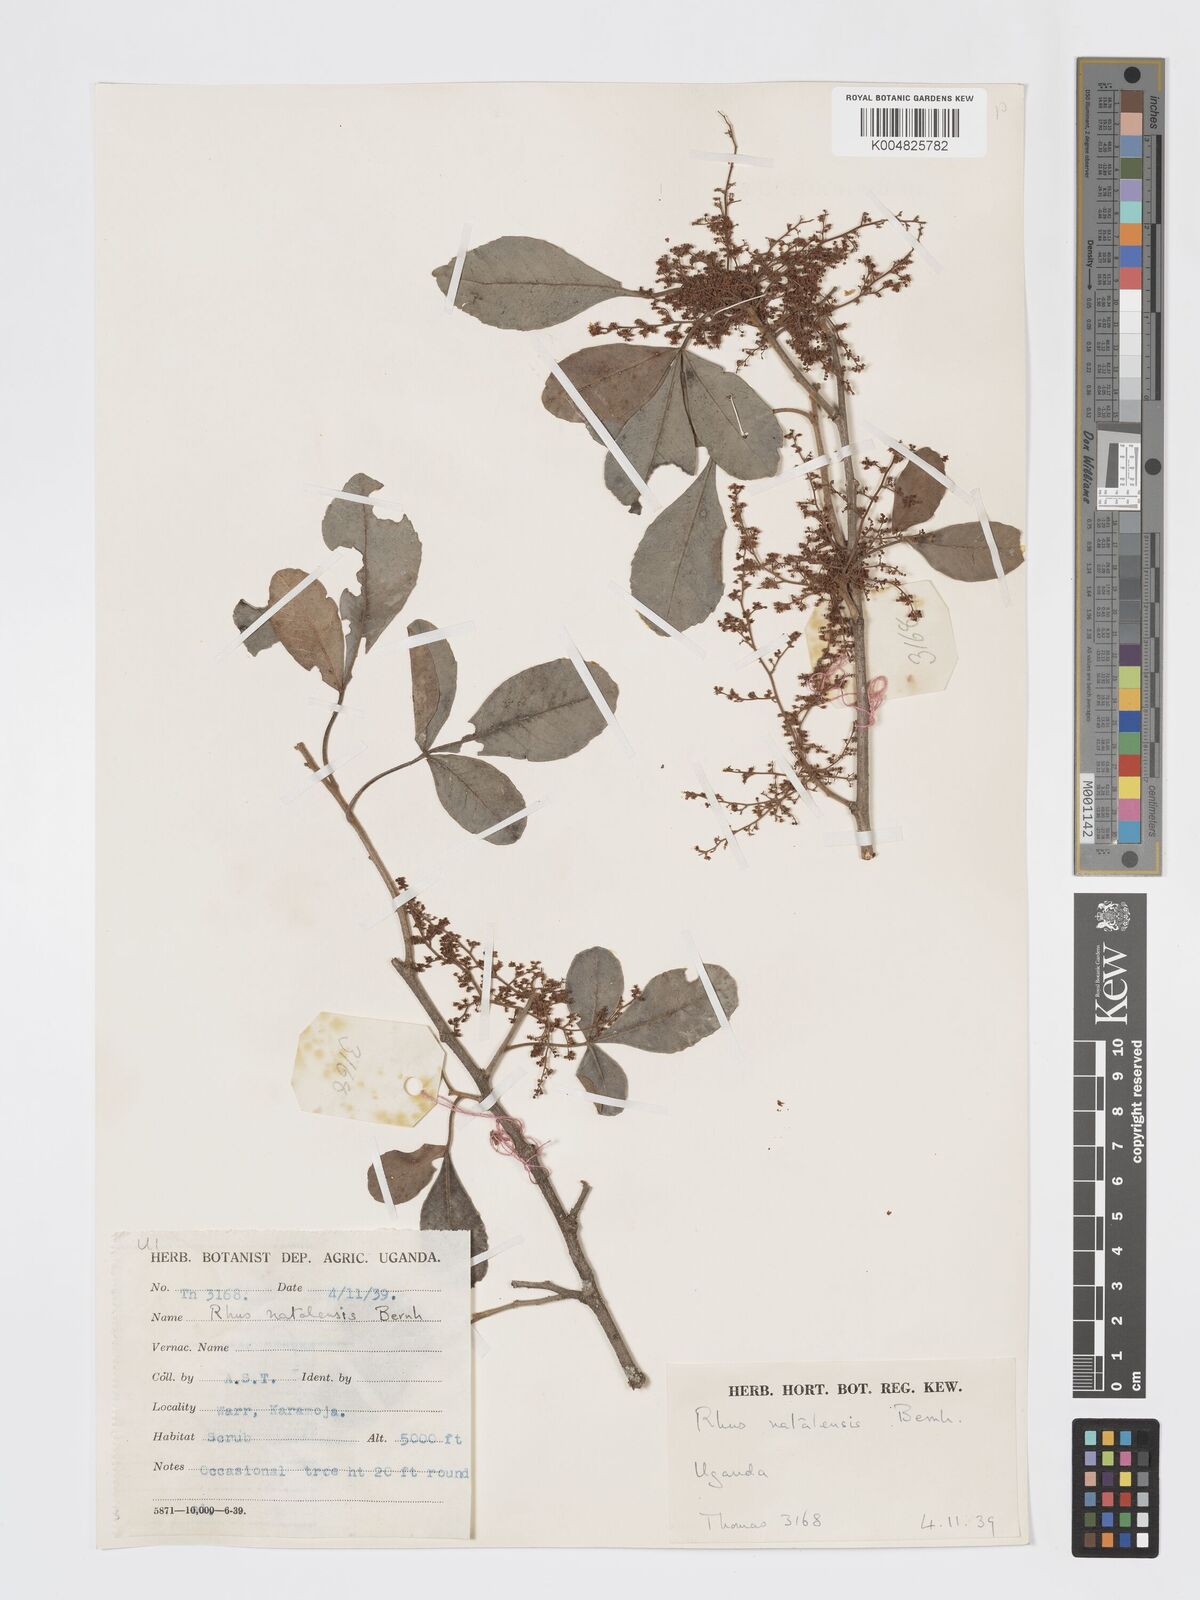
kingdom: Plantae
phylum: Tracheophyta
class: Magnoliopsida
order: Sapindales
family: Anacardiaceae
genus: Searsia
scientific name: Searsia natalensis
